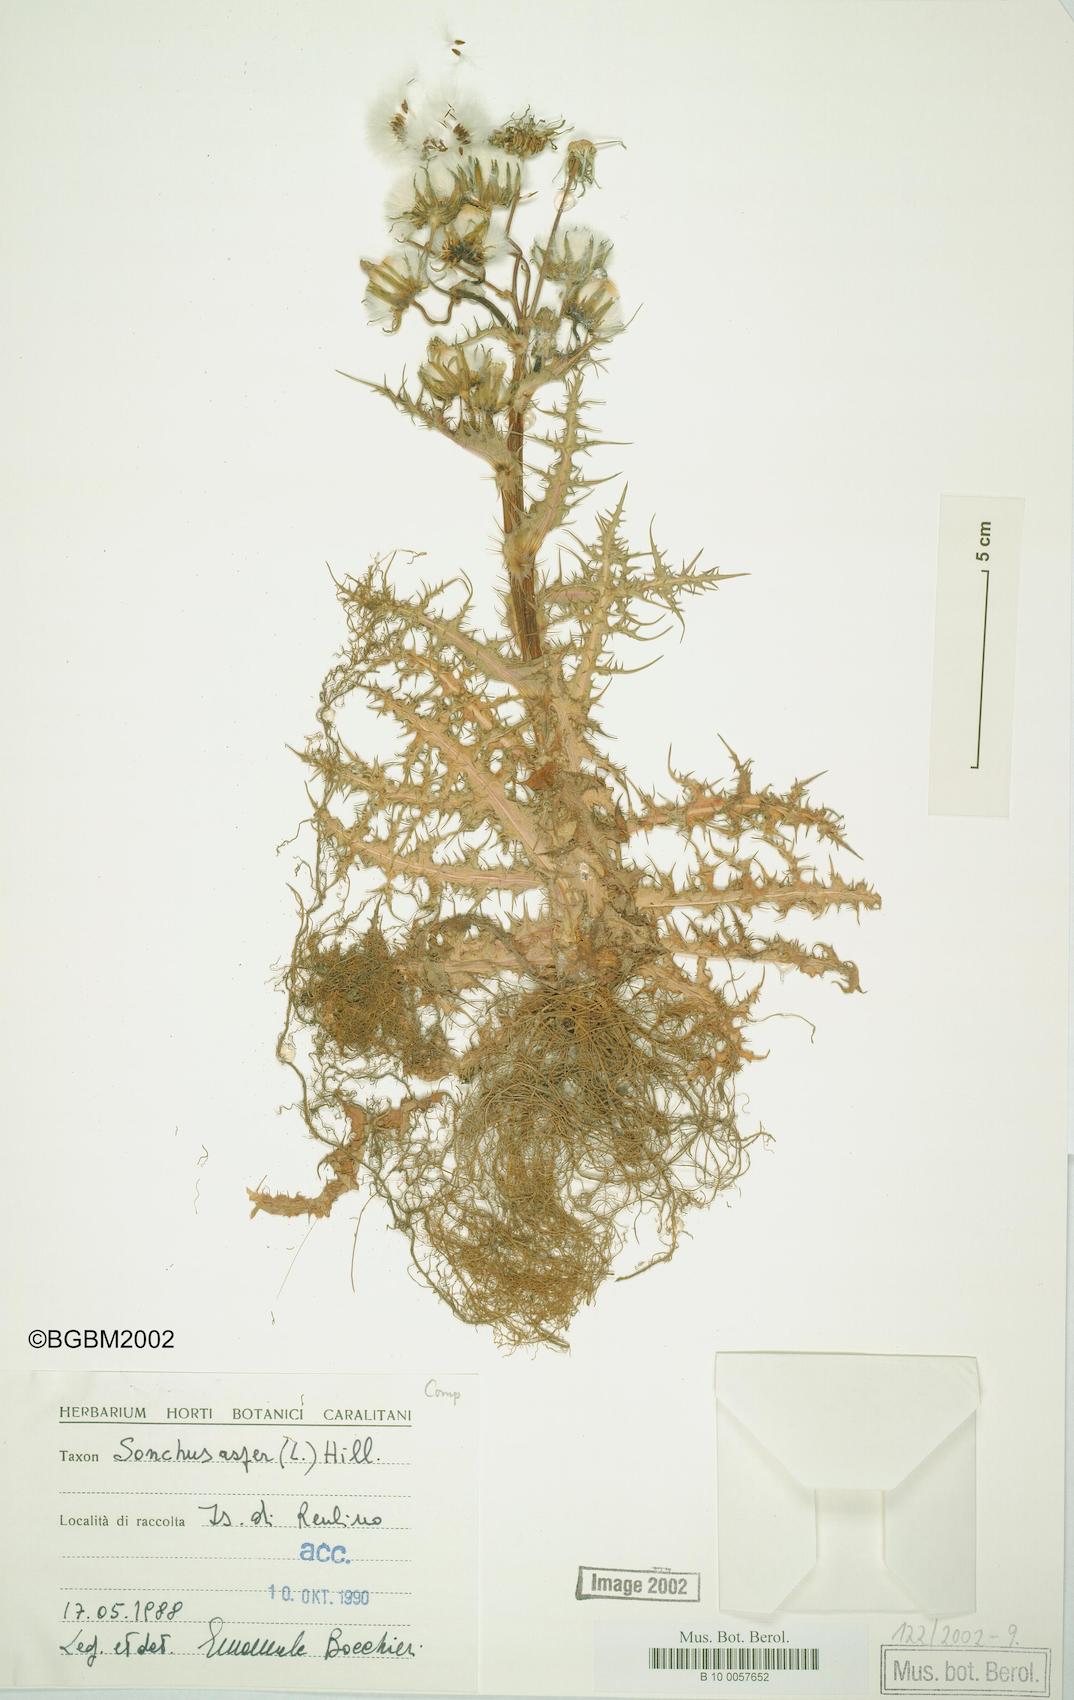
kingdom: Plantae
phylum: Tracheophyta
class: Magnoliopsida
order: Asterales
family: Asteraceae
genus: Sonchus
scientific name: Sonchus asper
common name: Prickly sow-thistle
